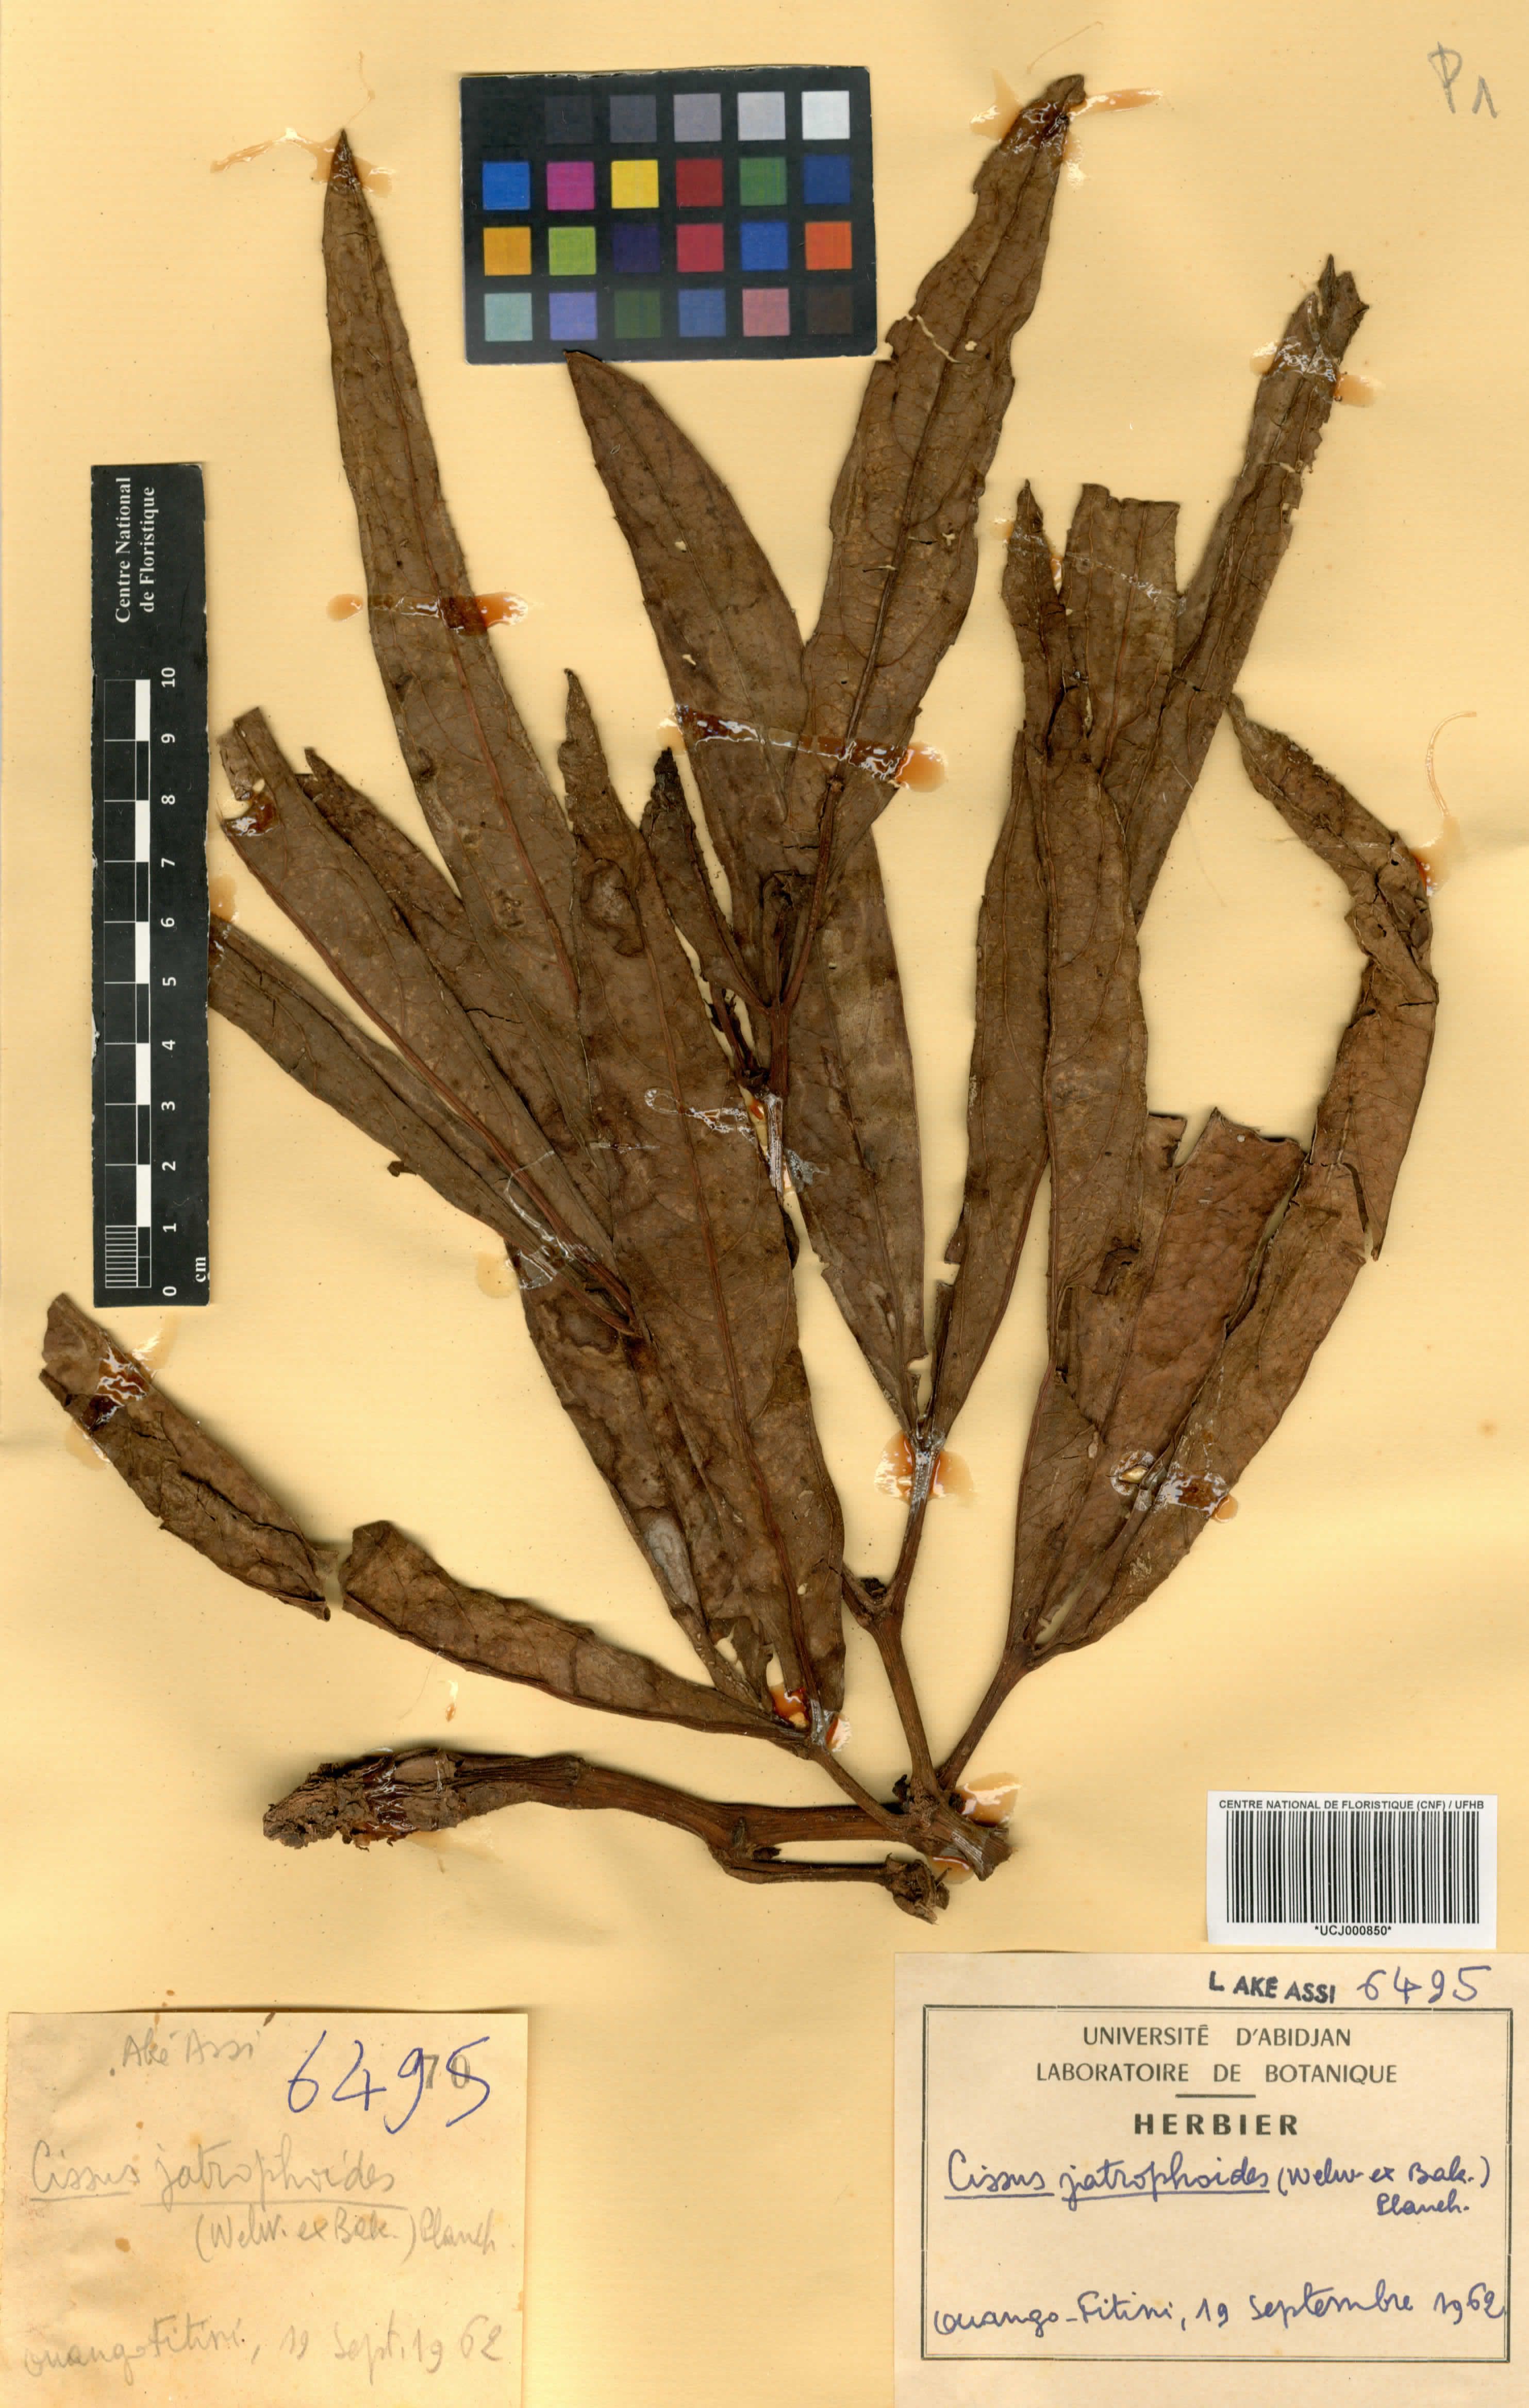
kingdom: Plantae
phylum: Tracheophyta
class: Magnoliopsida
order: Vitales
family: Vitaceae
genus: Cyphostemma
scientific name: Cyphostemma junceum
